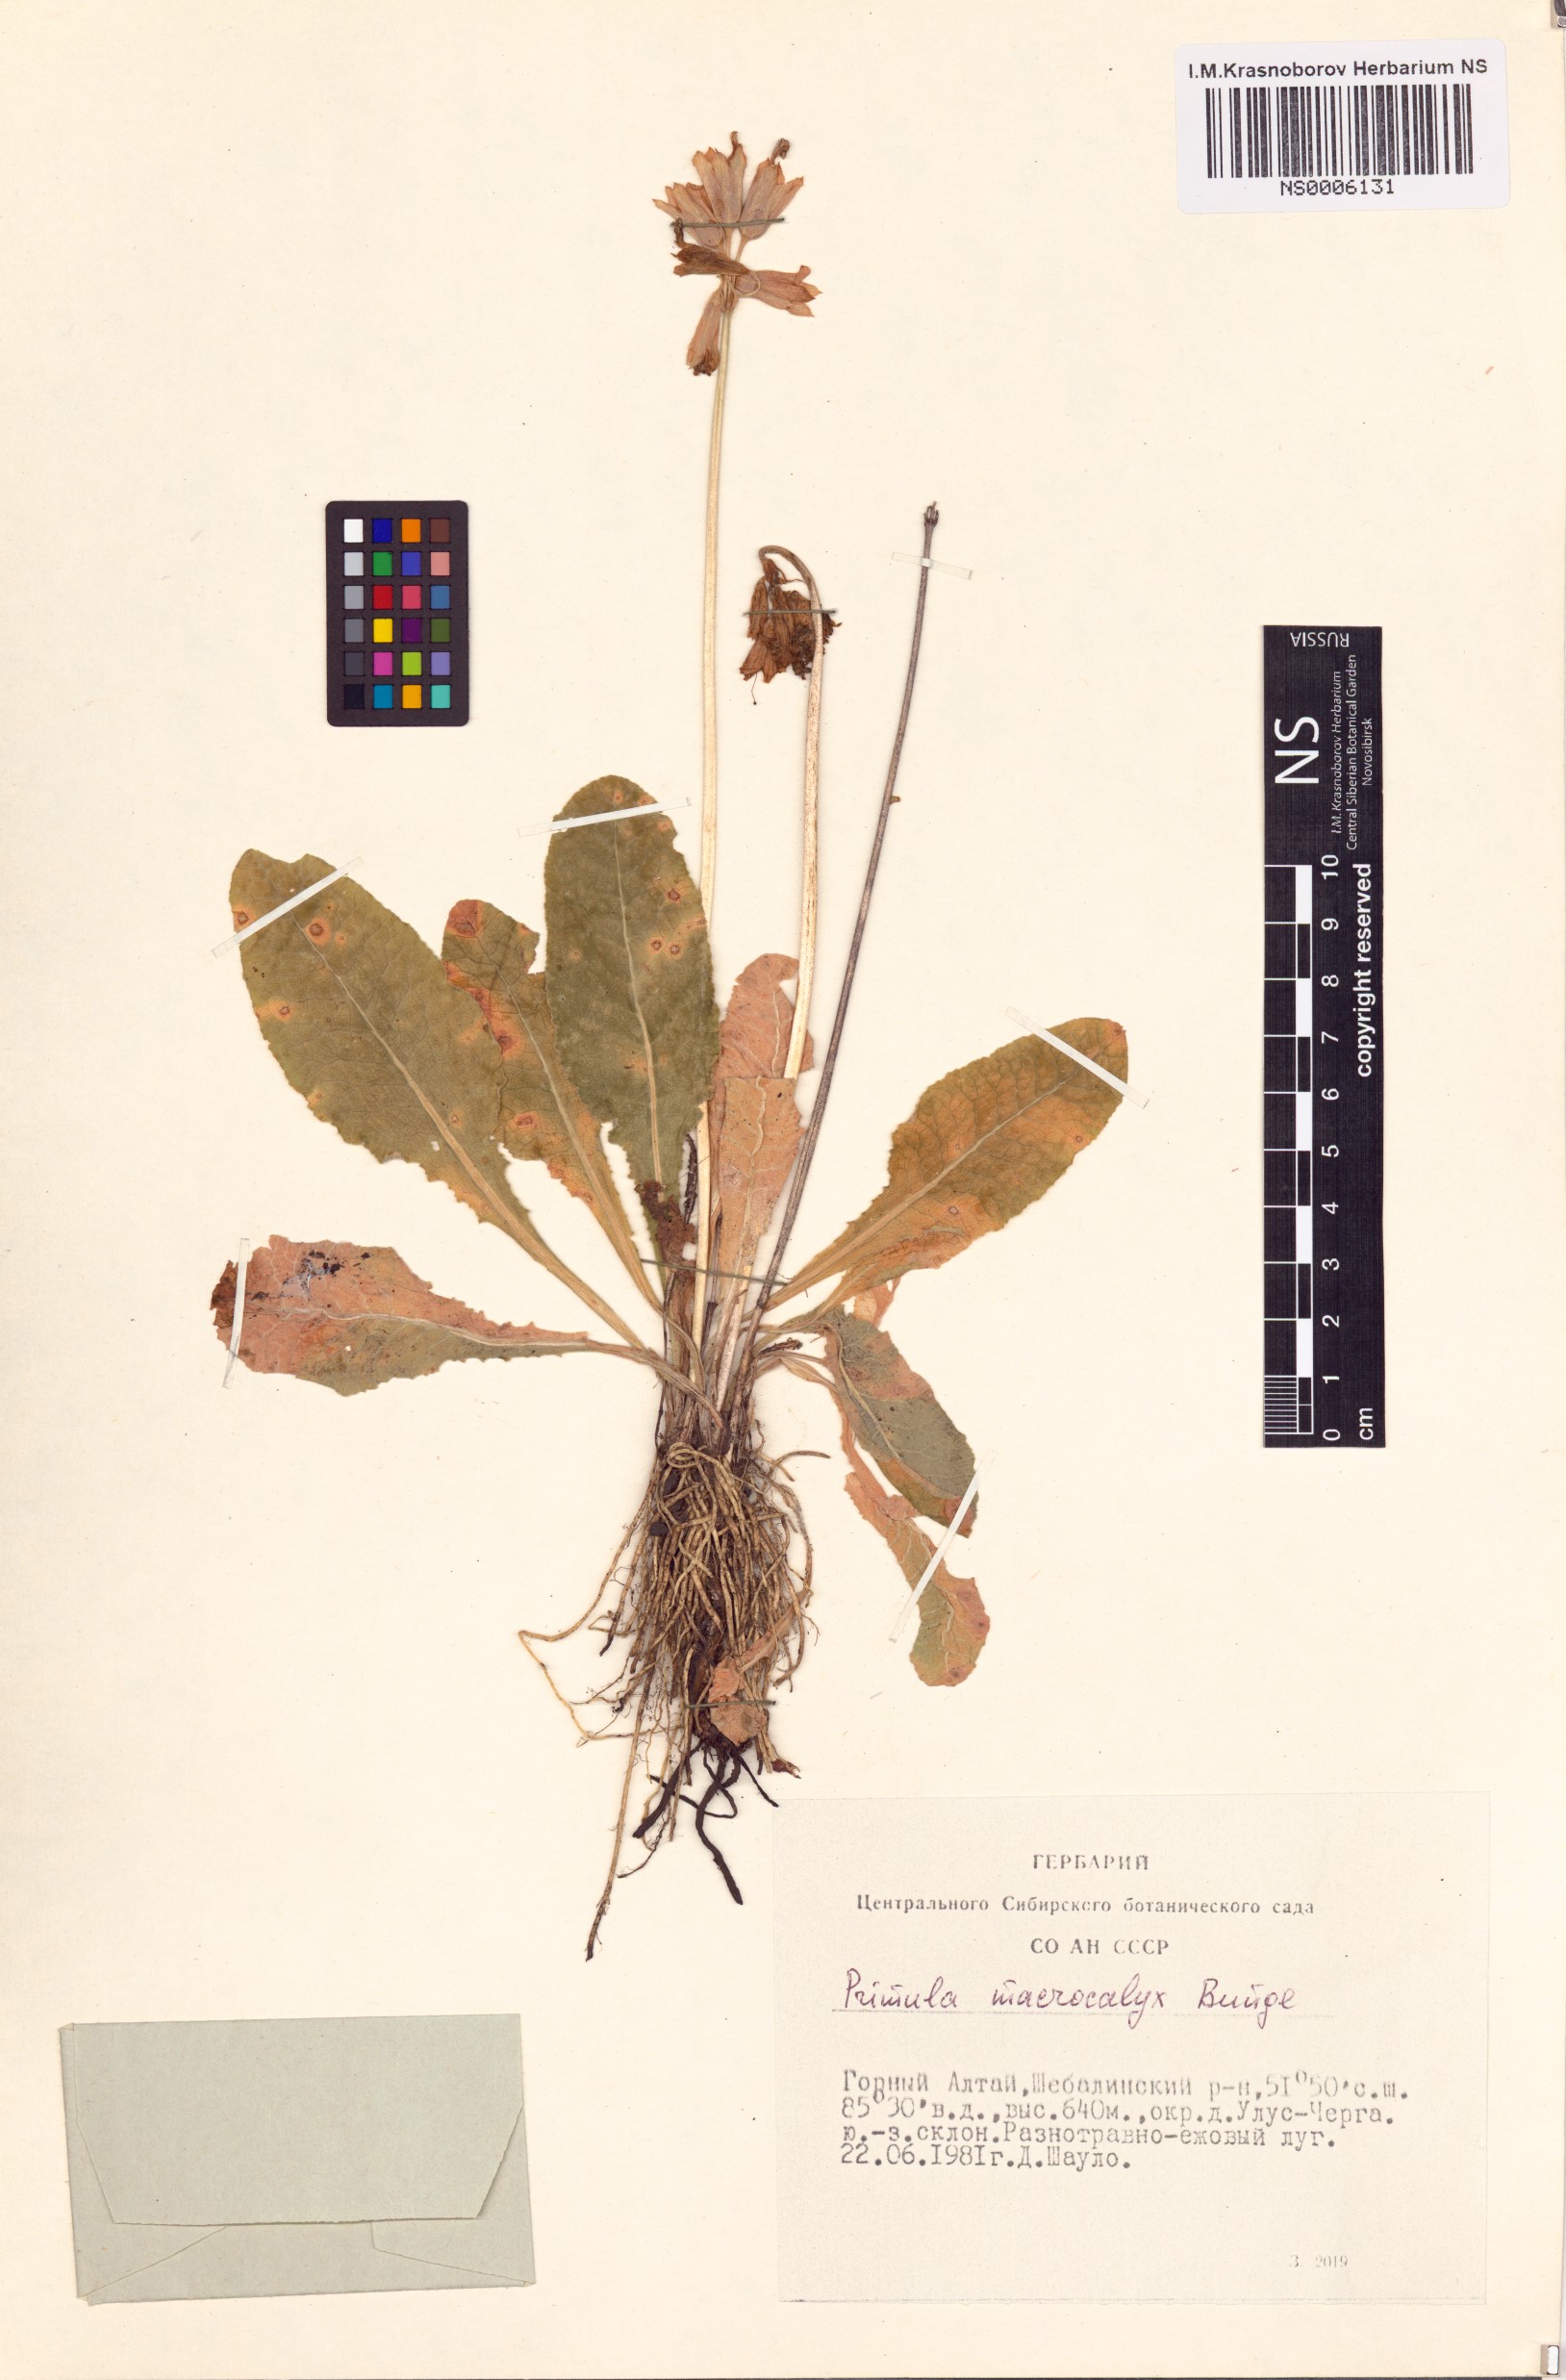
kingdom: Plantae
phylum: Tracheophyta
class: Magnoliopsida
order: Ericales
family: Primulaceae
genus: Primula
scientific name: Primula veris
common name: Cowslip
